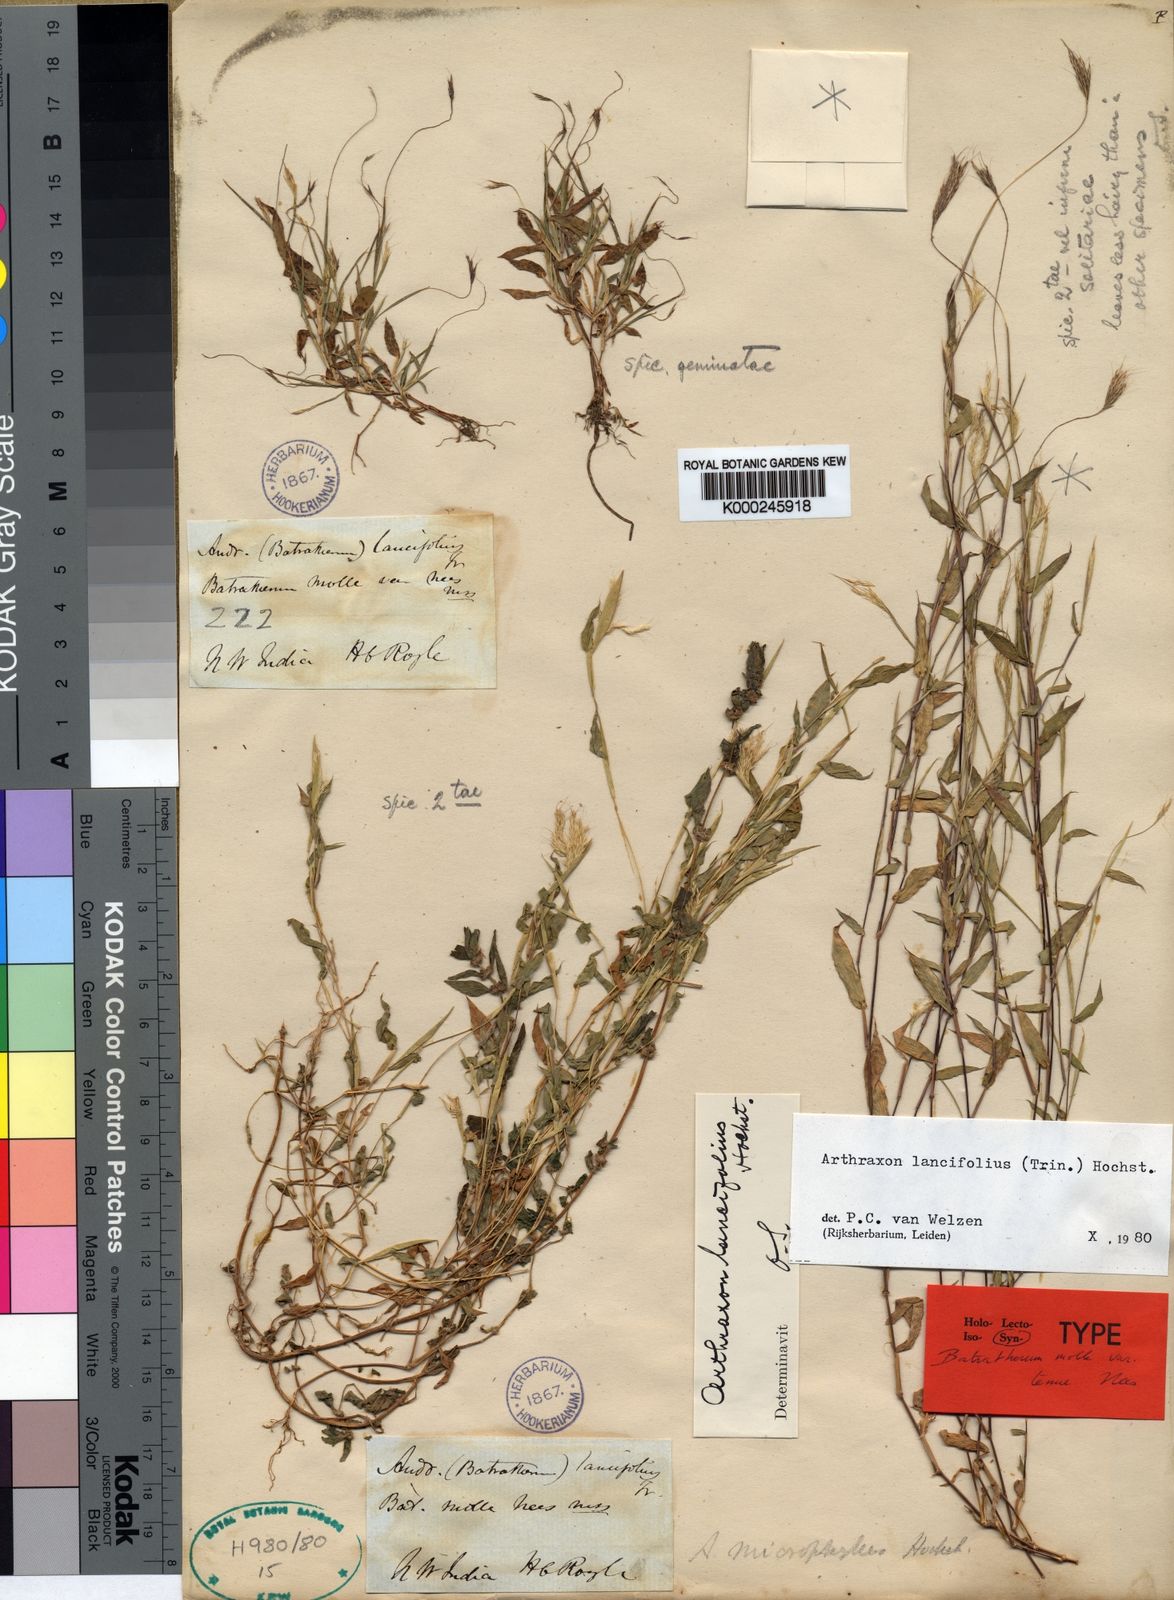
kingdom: Plantae
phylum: Tracheophyta
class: Liliopsida
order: Poales
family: Poaceae
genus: Arthraxon
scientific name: Arthraxon lancifolius
